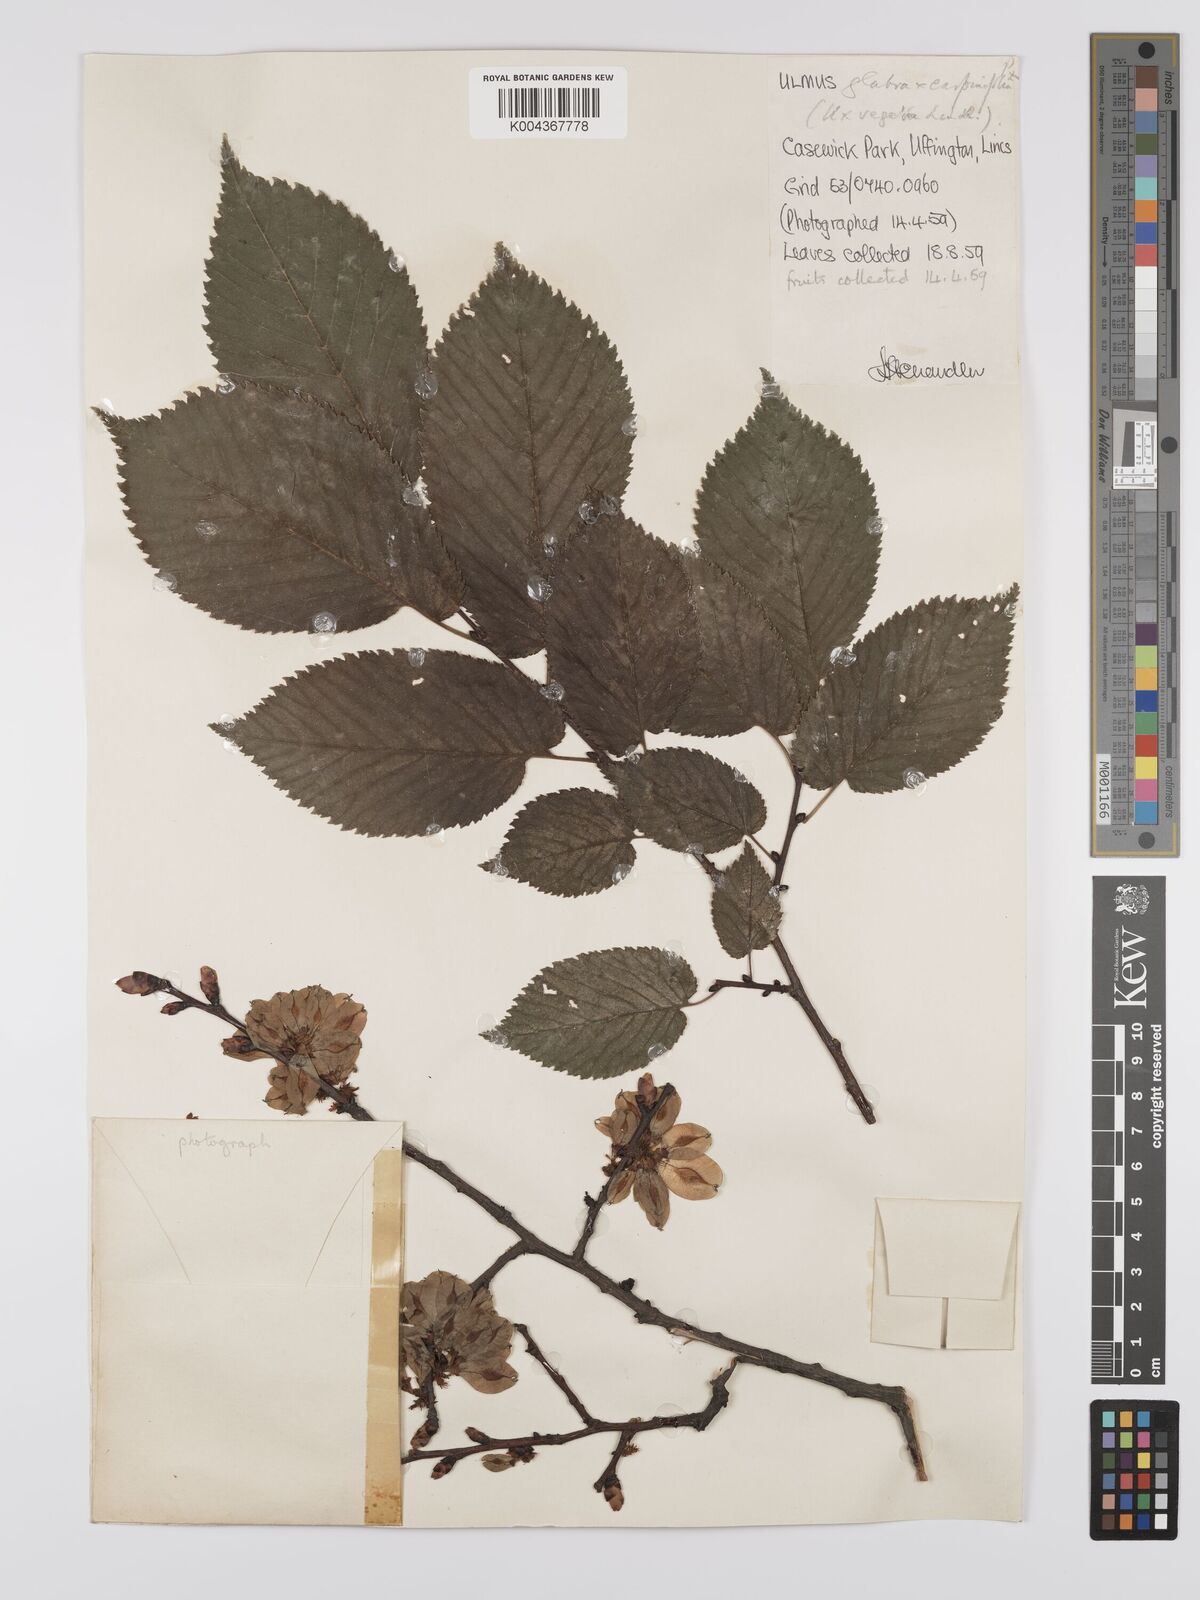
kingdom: Plantae
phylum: Tracheophyta
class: Magnoliopsida
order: Rosales
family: Ulmaceae
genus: Ulmus
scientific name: Ulmus
